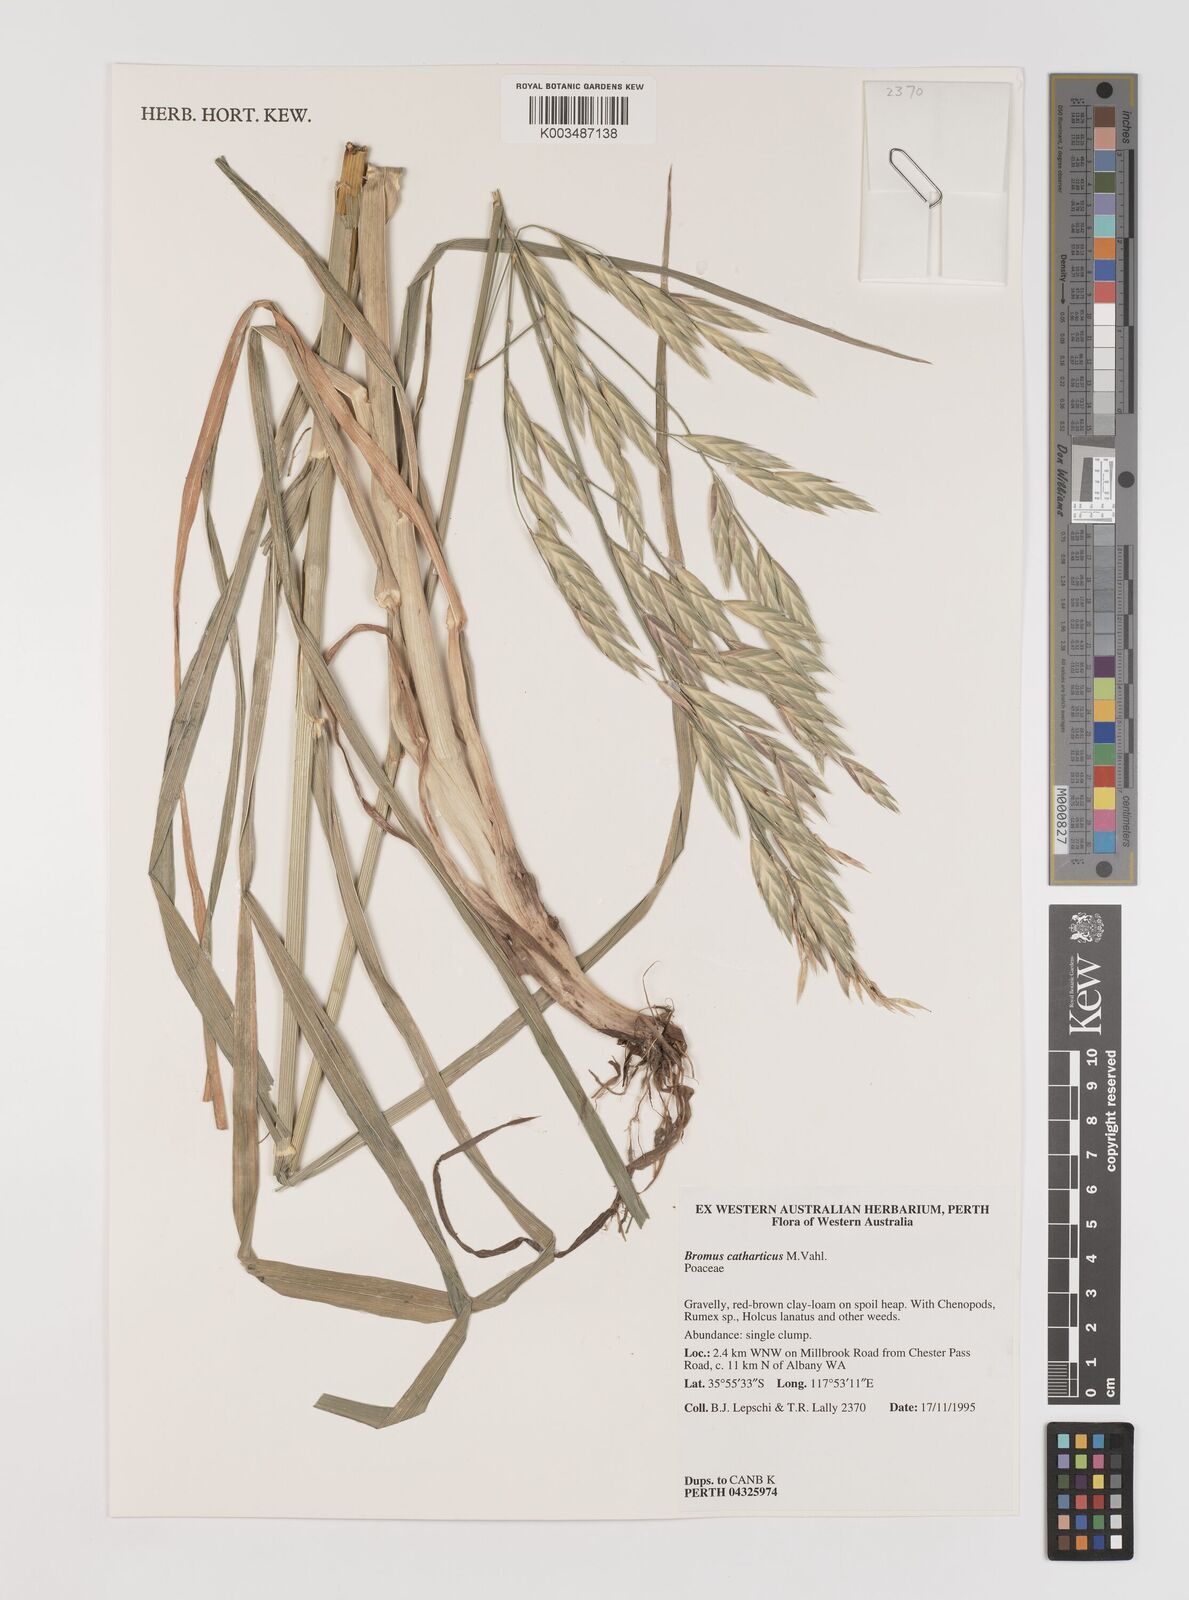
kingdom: Plantae
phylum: Tracheophyta
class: Liliopsida
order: Poales
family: Poaceae
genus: Bromus
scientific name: Bromus catharticus
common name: Rescuegrass
